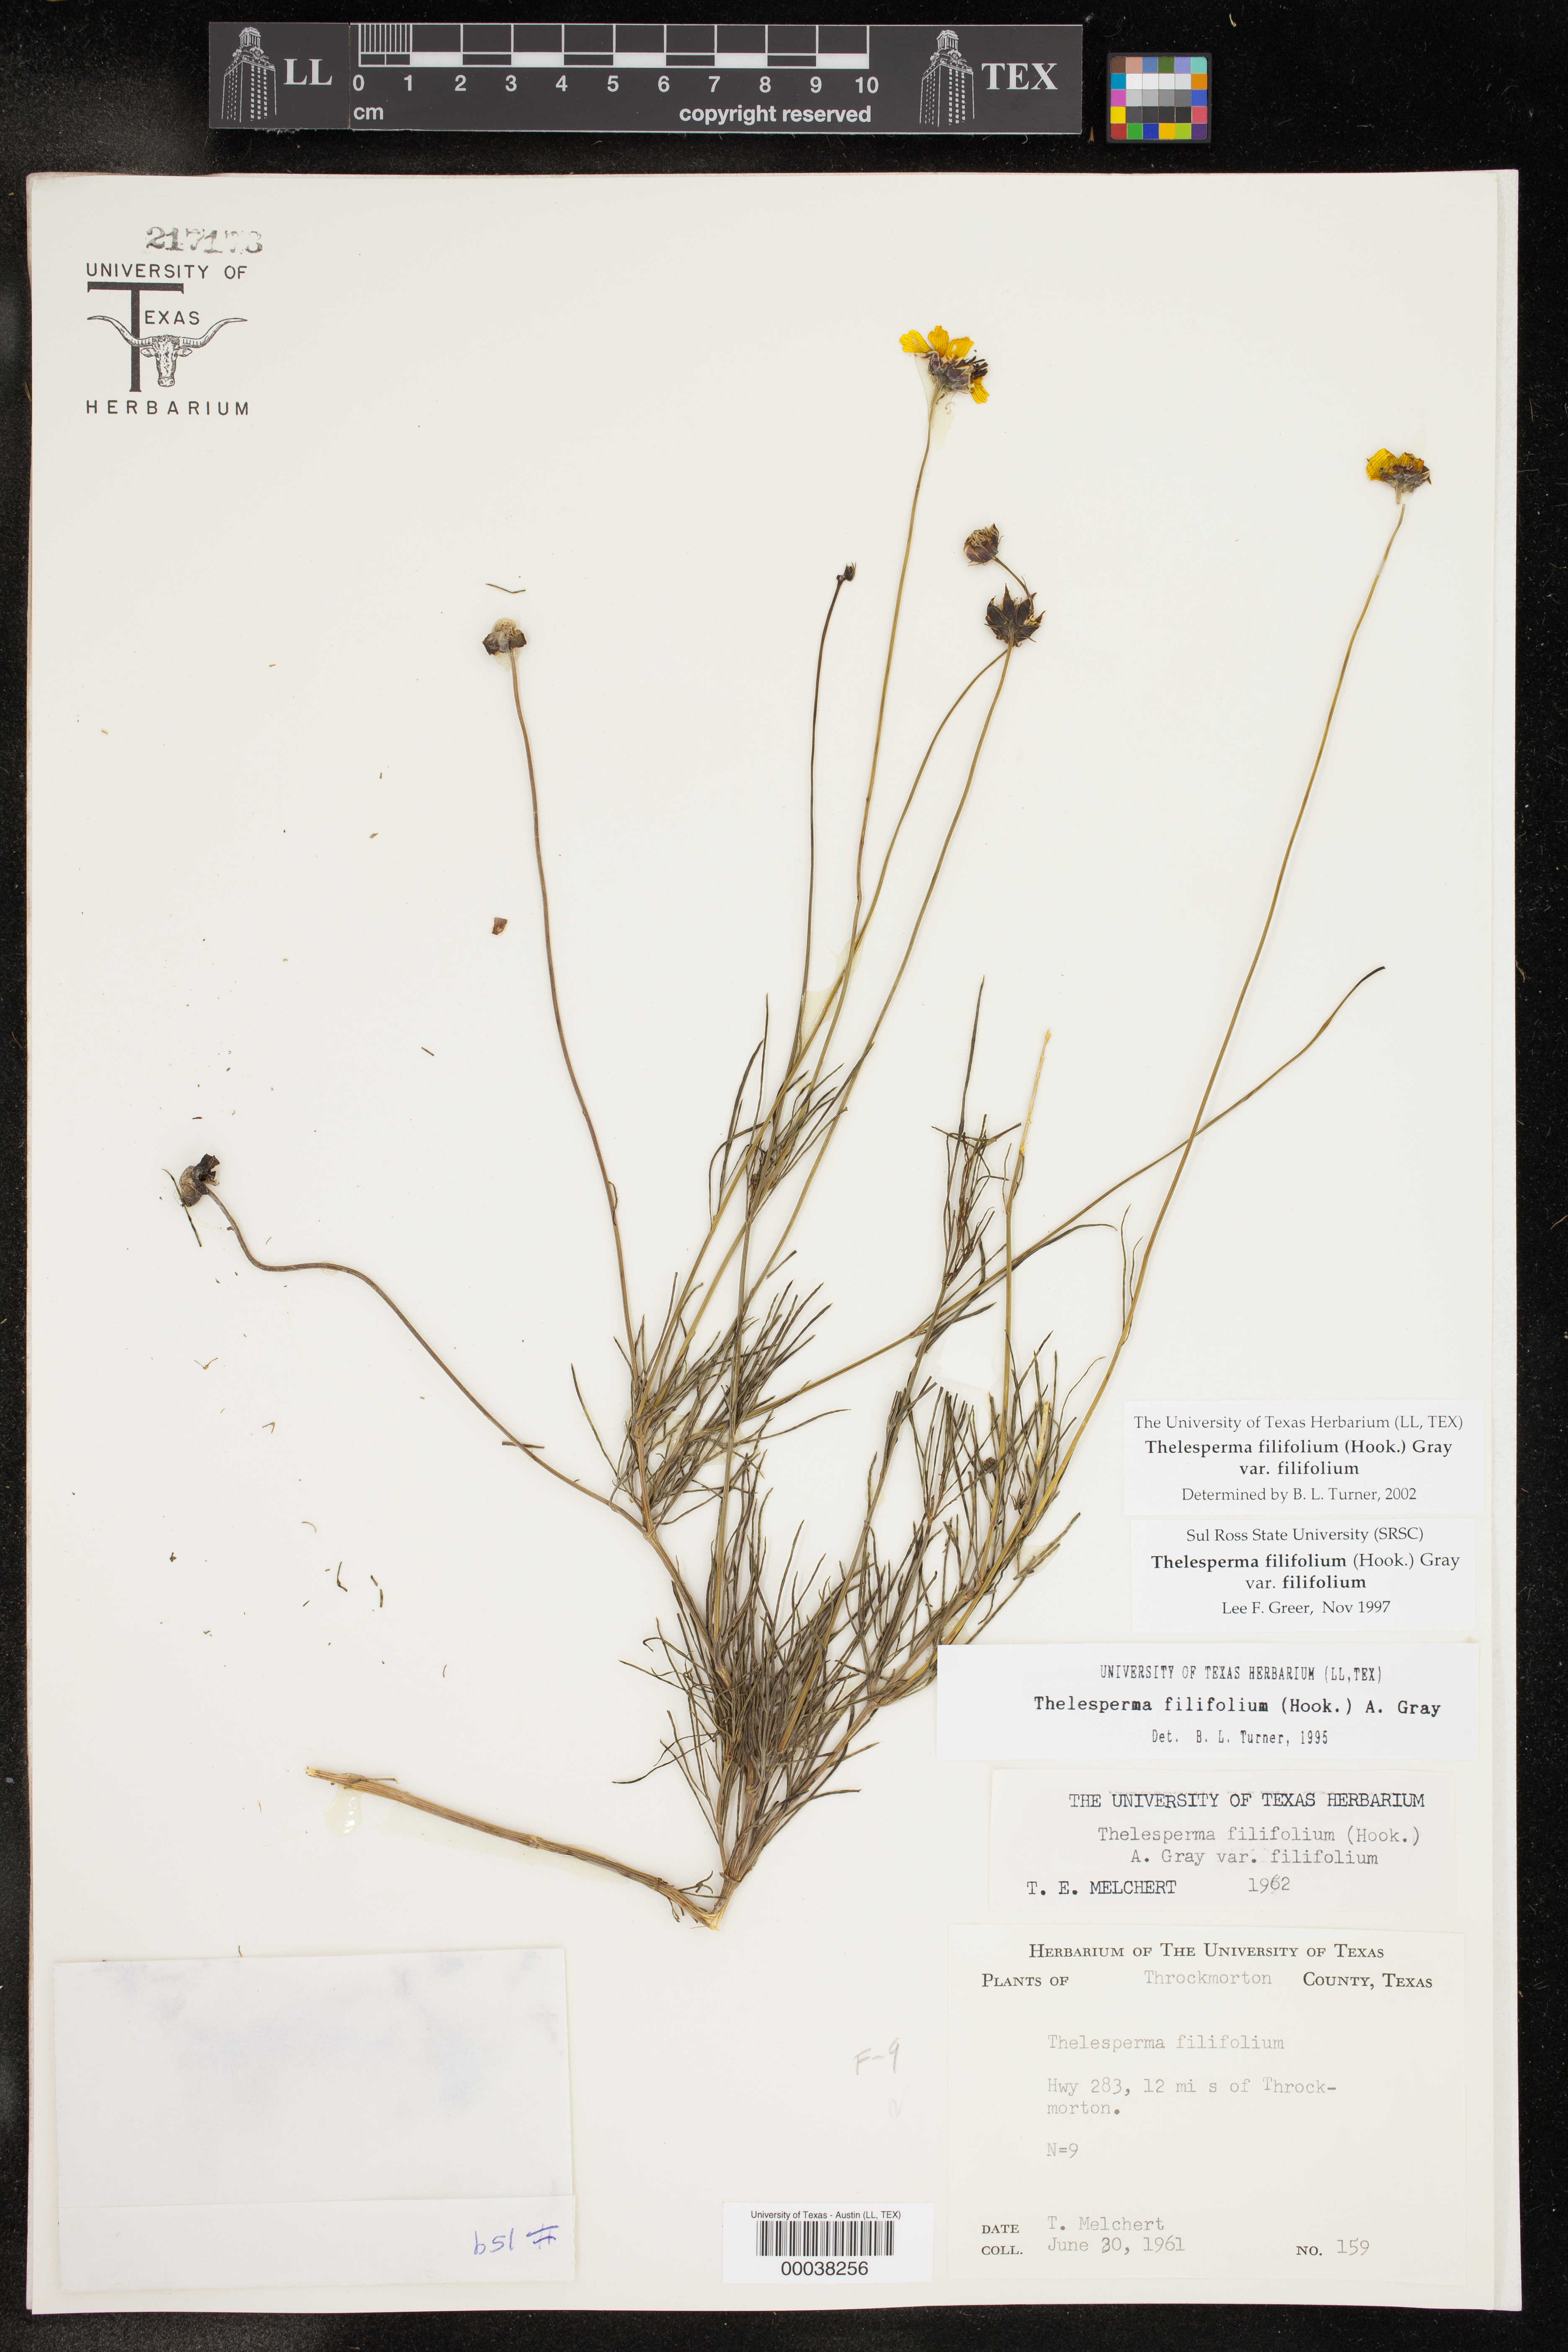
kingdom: Plantae
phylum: Tracheophyta
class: Magnoliopsida
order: Asterales
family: Asteraceae
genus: Thelesperma
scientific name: Thelesperma filifolium
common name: Stiff greenthread
